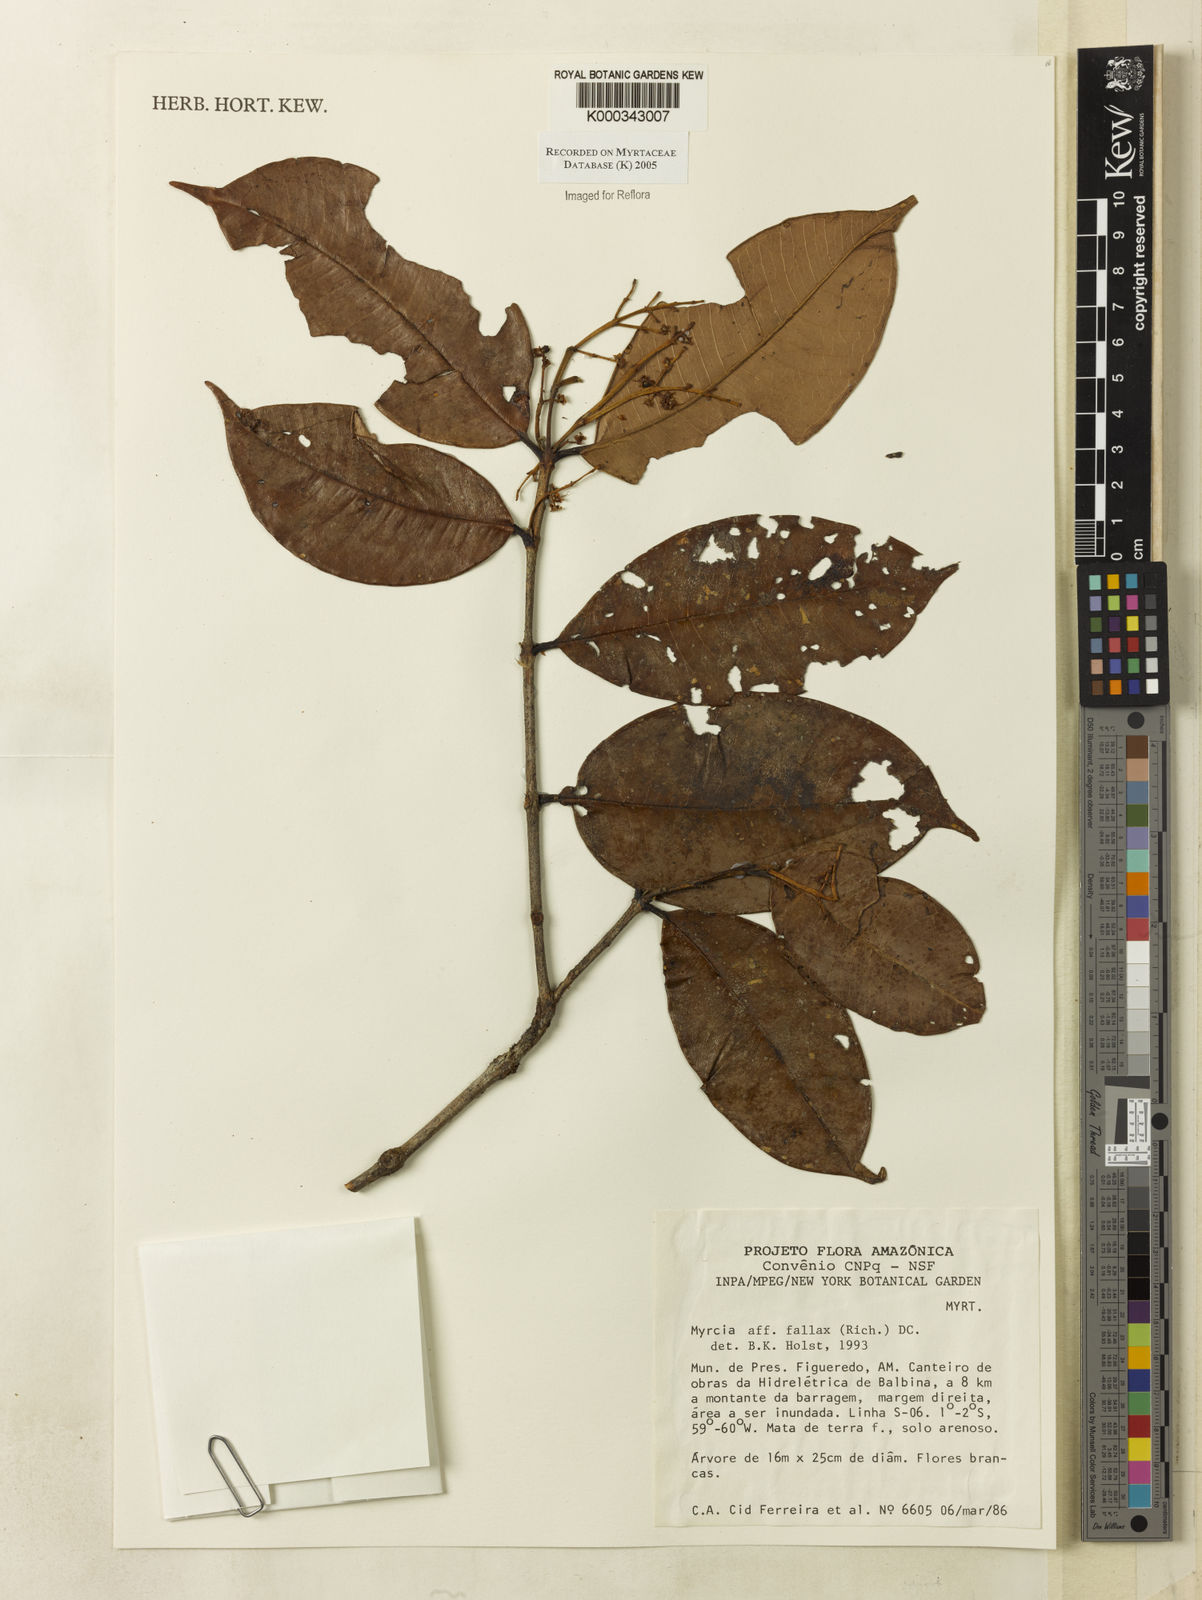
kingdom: Plantae
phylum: Tracheophyta
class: Magnoliopsida
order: Myrtales
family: Myrtaceae
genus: Myrcia
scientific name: Myrcia splendens
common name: Surinam cherry
